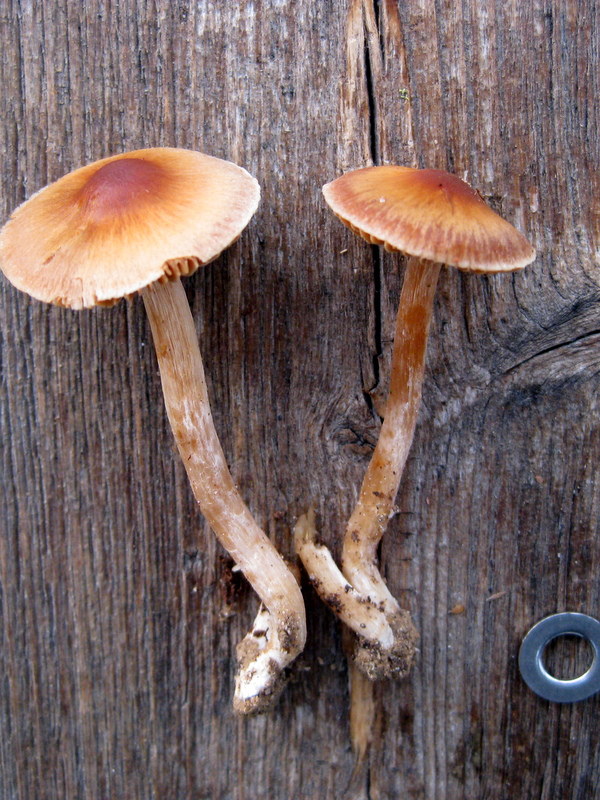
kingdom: Fungi
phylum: Basidiomycota
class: Agaricomycetes
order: Agaricales
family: Cortinariaceae
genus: Cortinarius
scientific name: Cortinarius incisus
